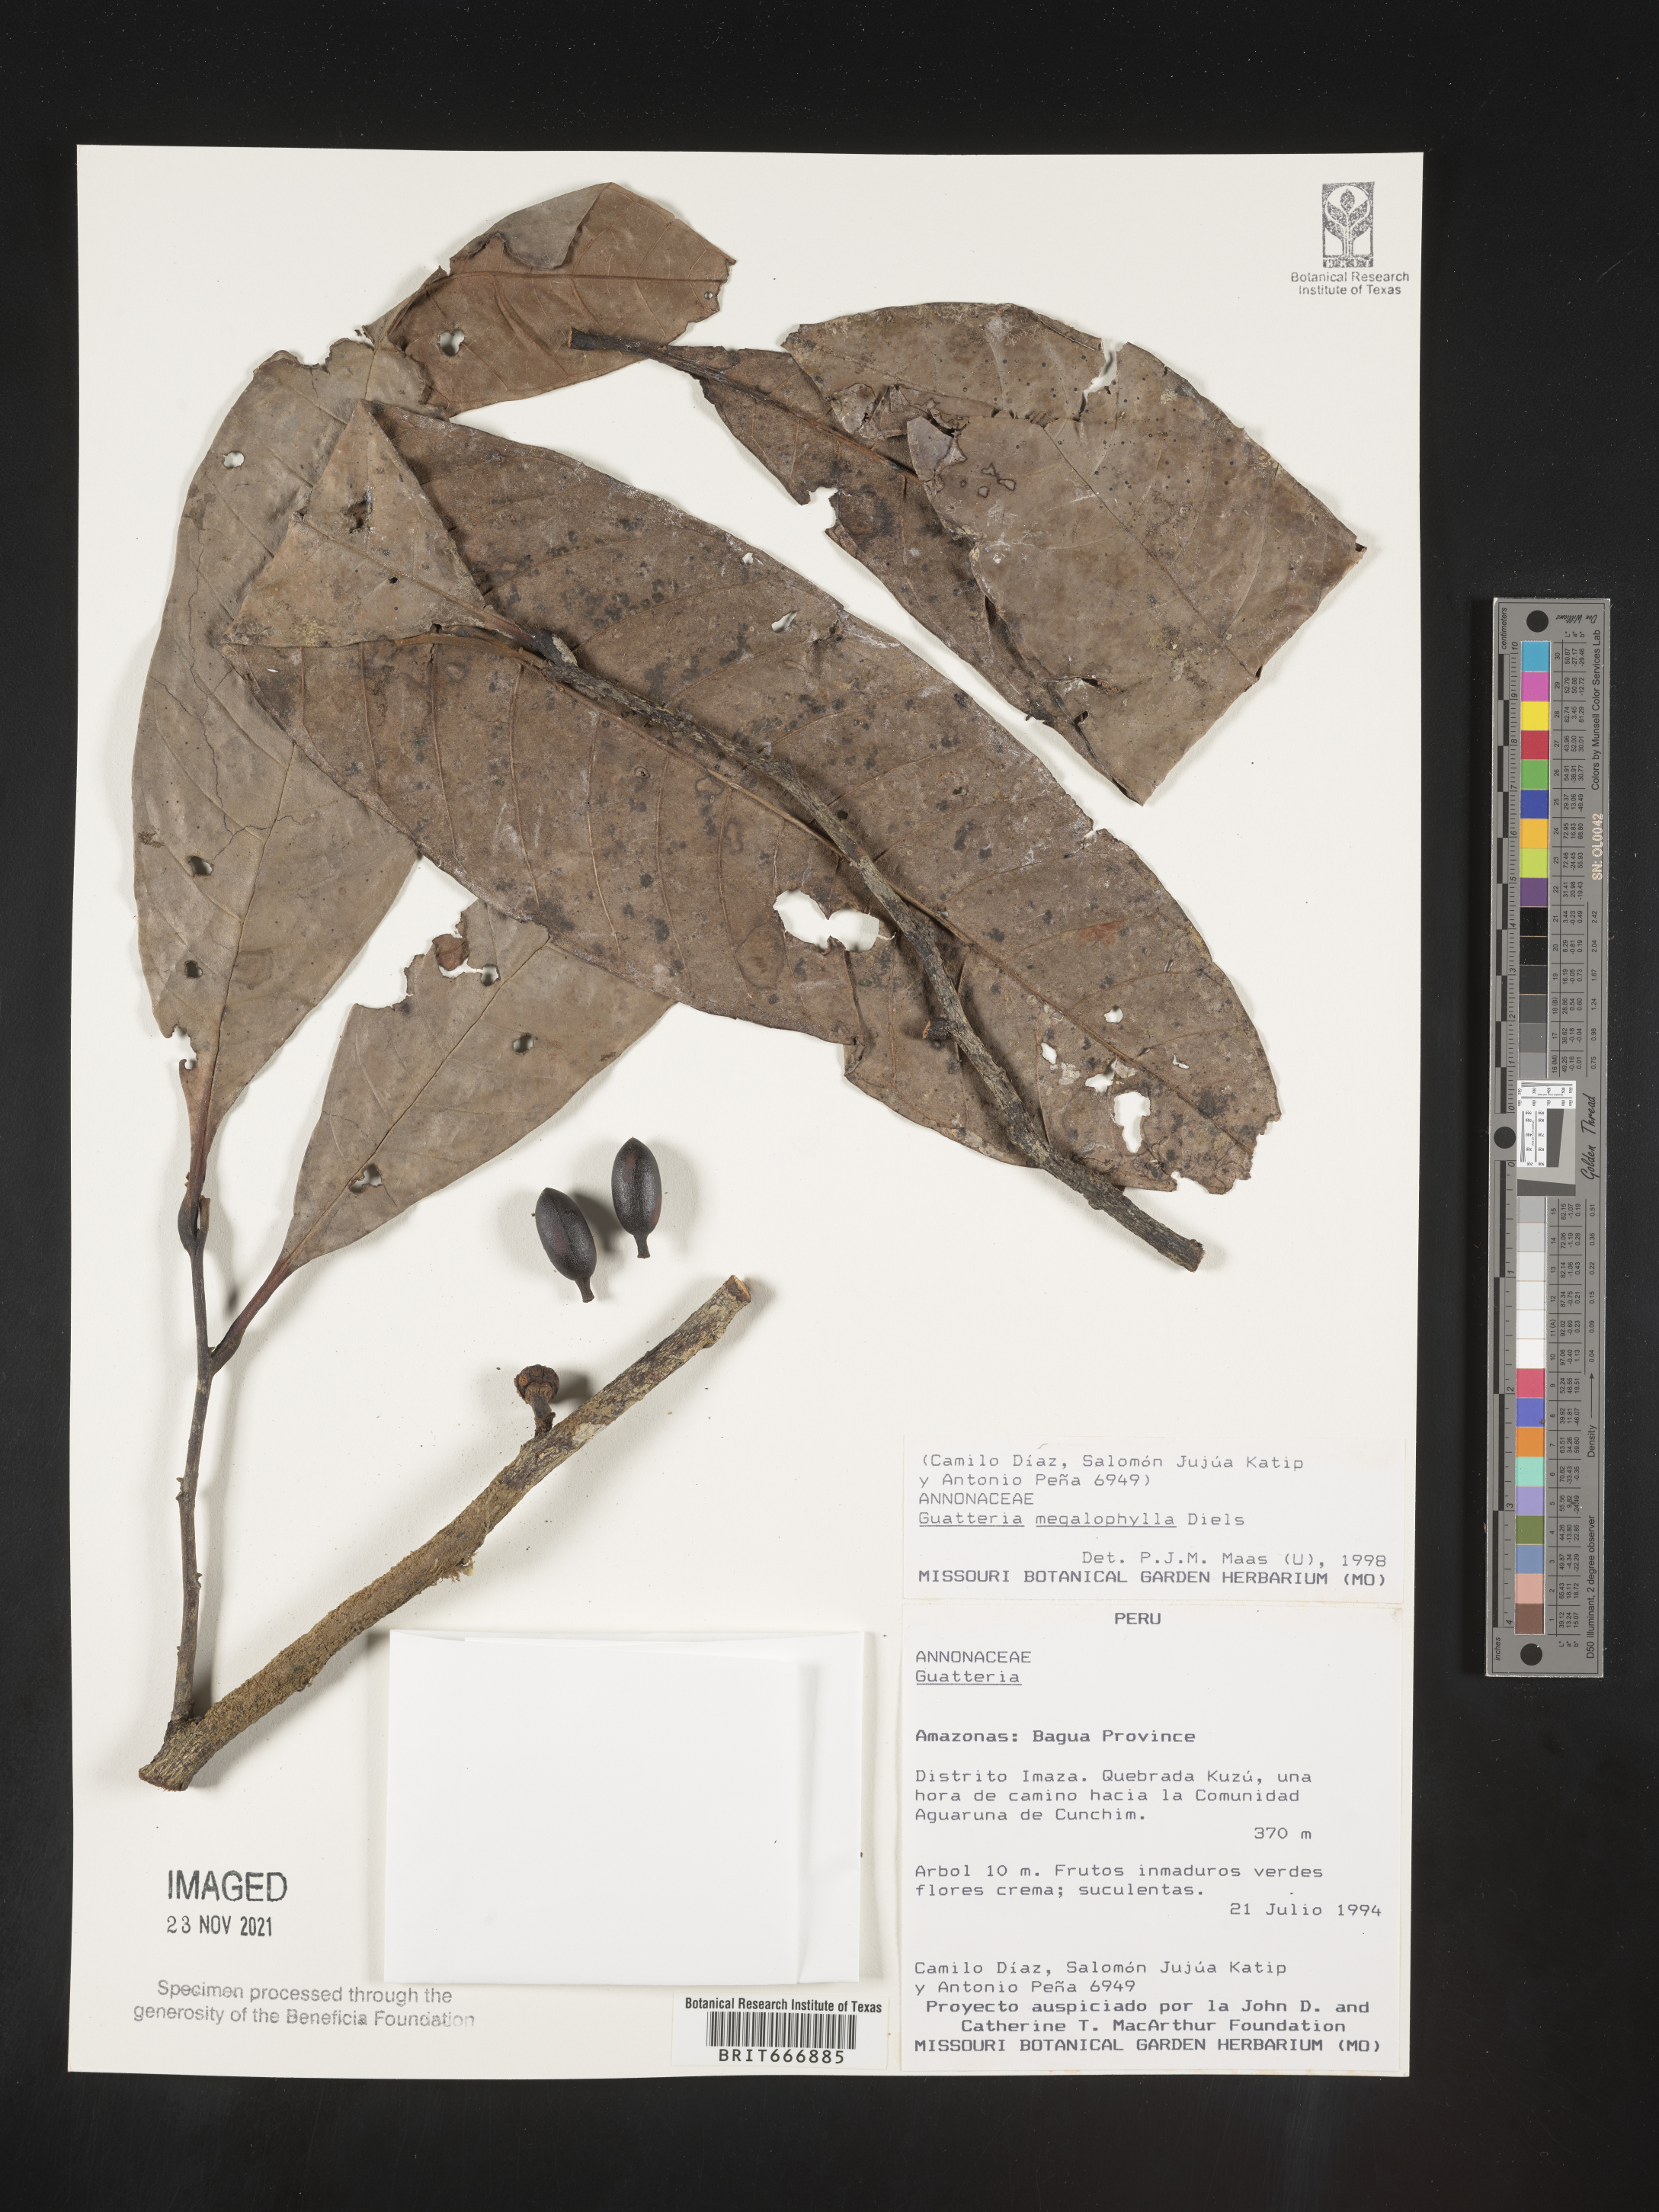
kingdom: Plantae
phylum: Tracheophyta
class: Magnoliopsida
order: Magnoliales
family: Annonaceae
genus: Guatteria
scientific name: Guatteria
